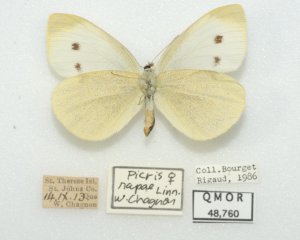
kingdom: Animalia
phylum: Arthropoda
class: Insecta
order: Lepidoptera
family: Pieridae
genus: Pieris
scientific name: Pieris rapae
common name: Cabbage White
